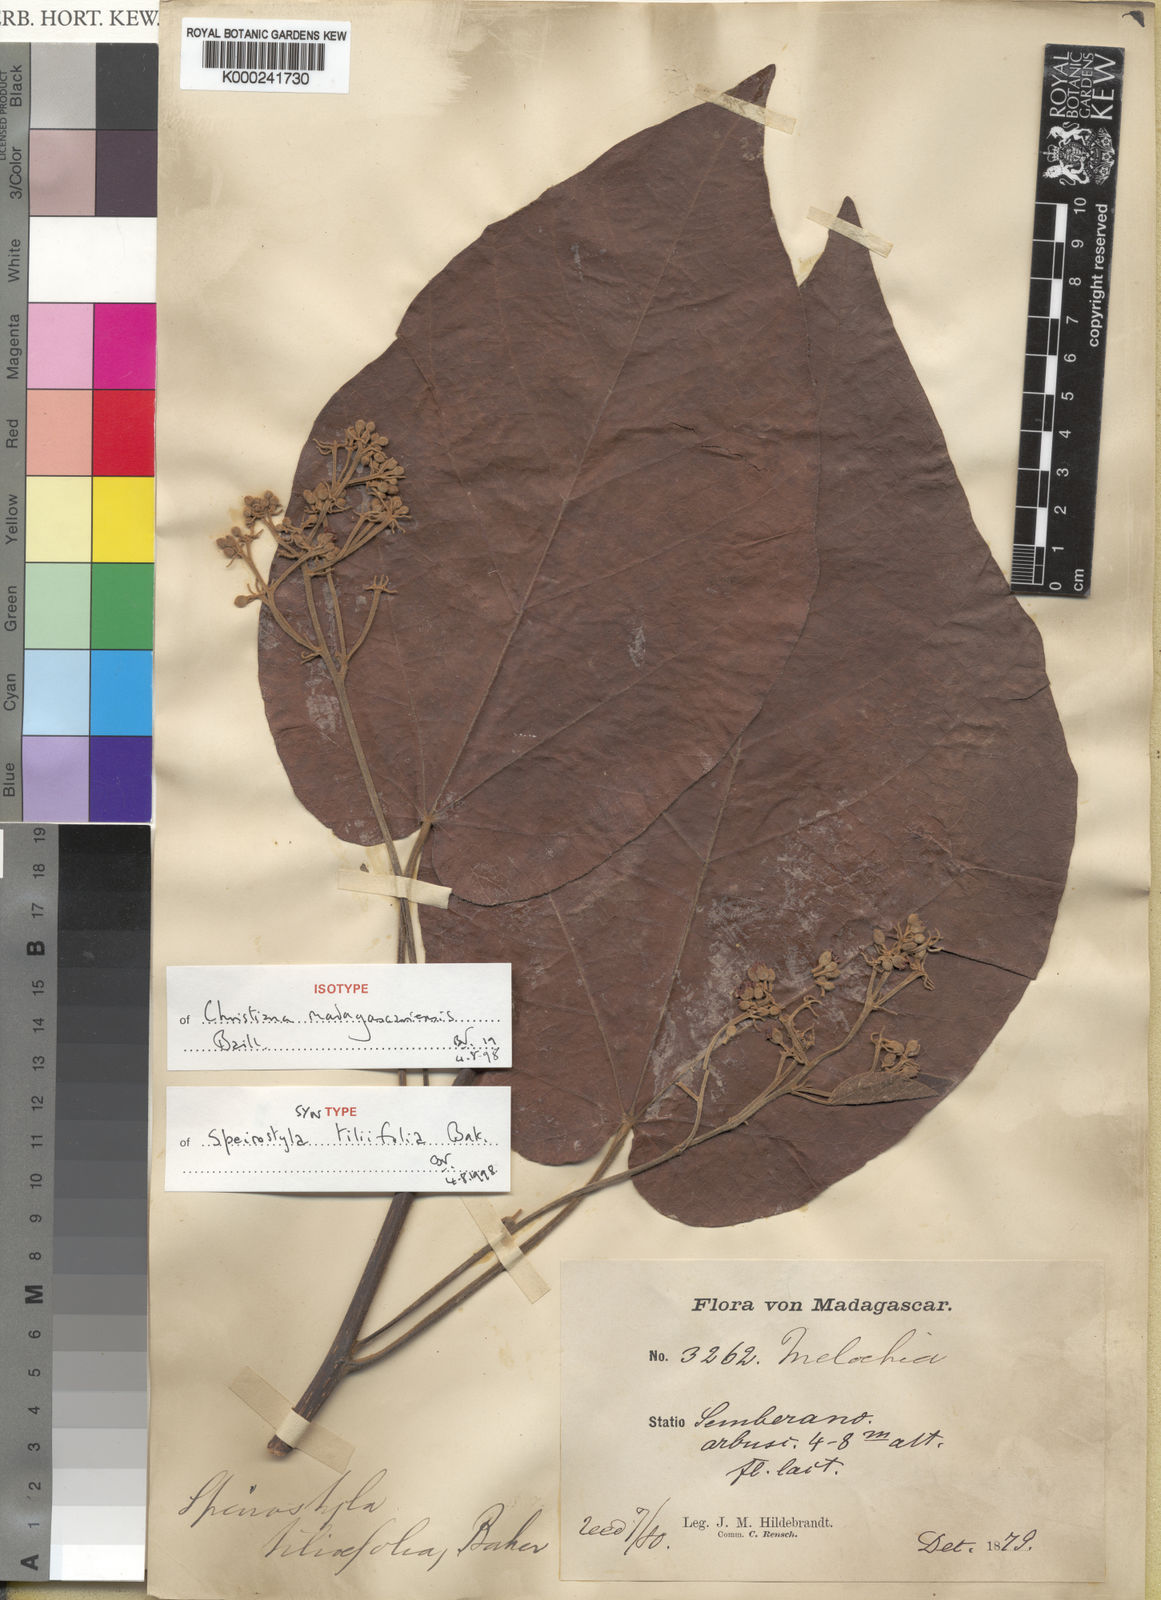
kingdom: Plantae
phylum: Tracheophyta
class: Magnoliopsida
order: Malvales
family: Malvaceae
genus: Christiana
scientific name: Christiana africana
